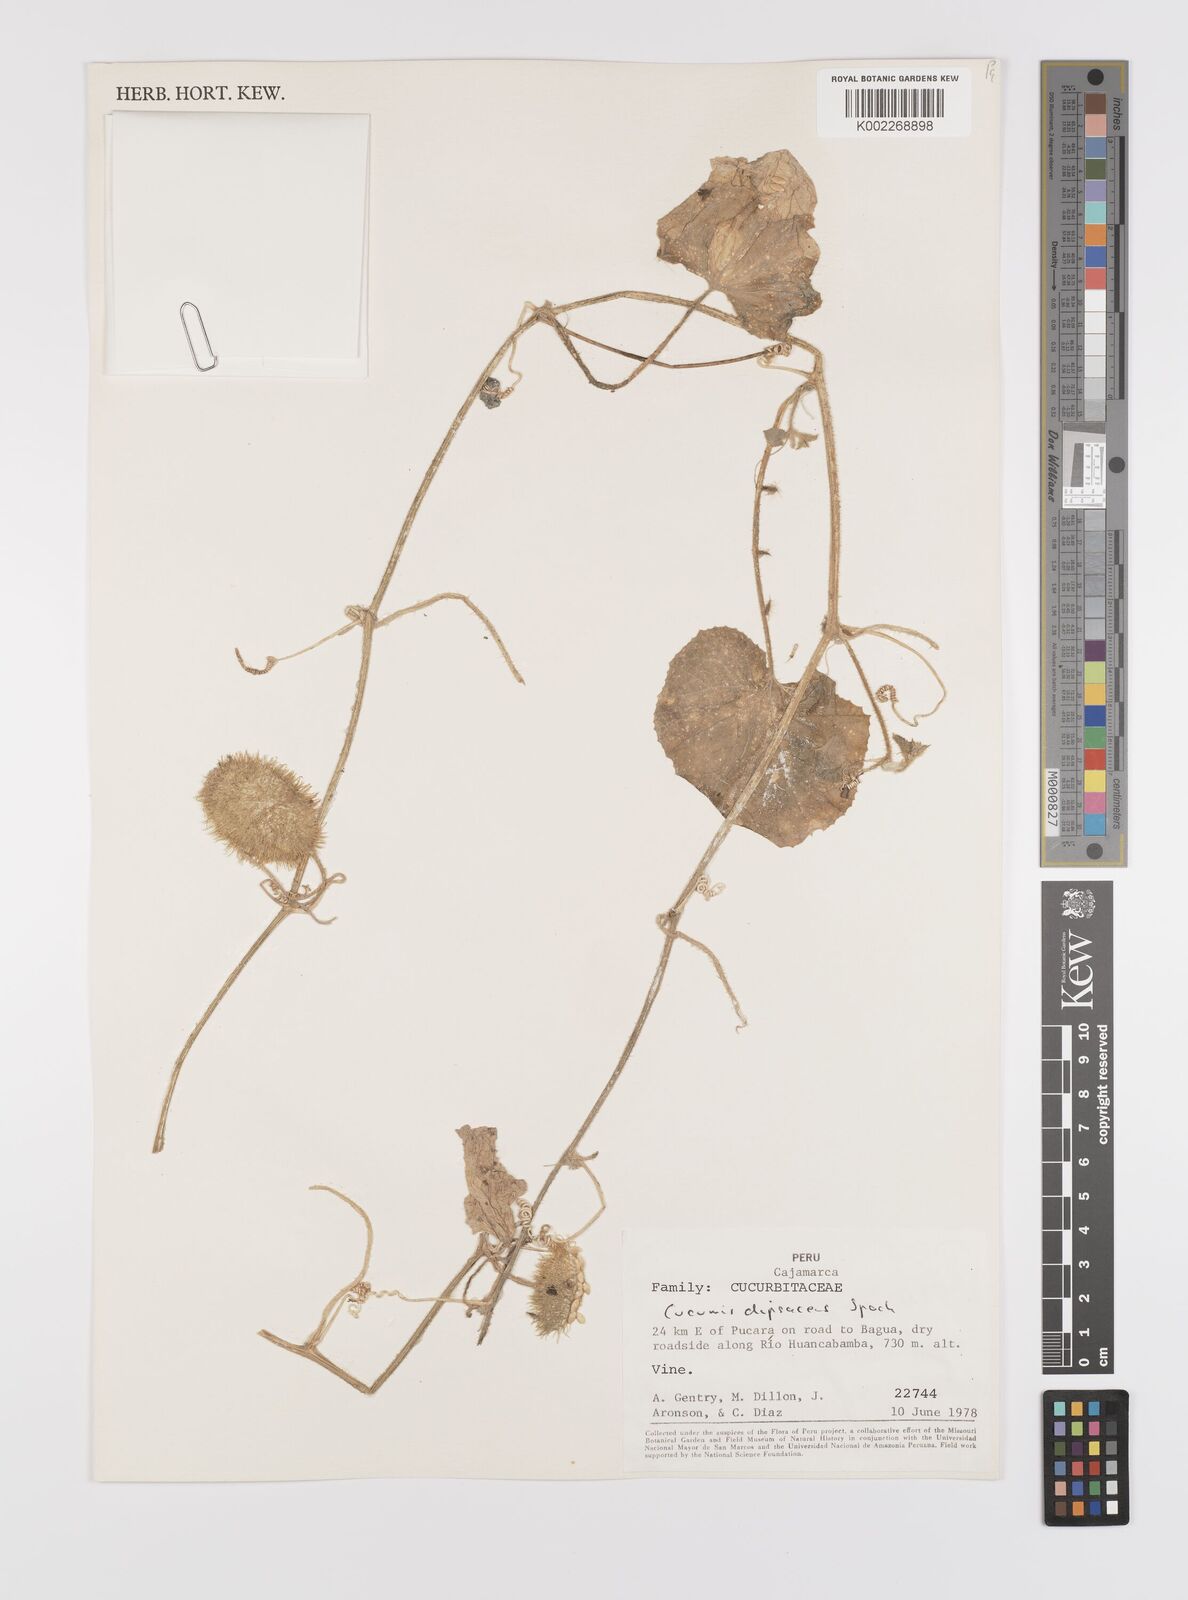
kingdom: Plantae
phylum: Tracheophyta
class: Magnoliopsida
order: Cucurbitales
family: Cucurbitaceae
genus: Cucumis
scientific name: Cucumis
